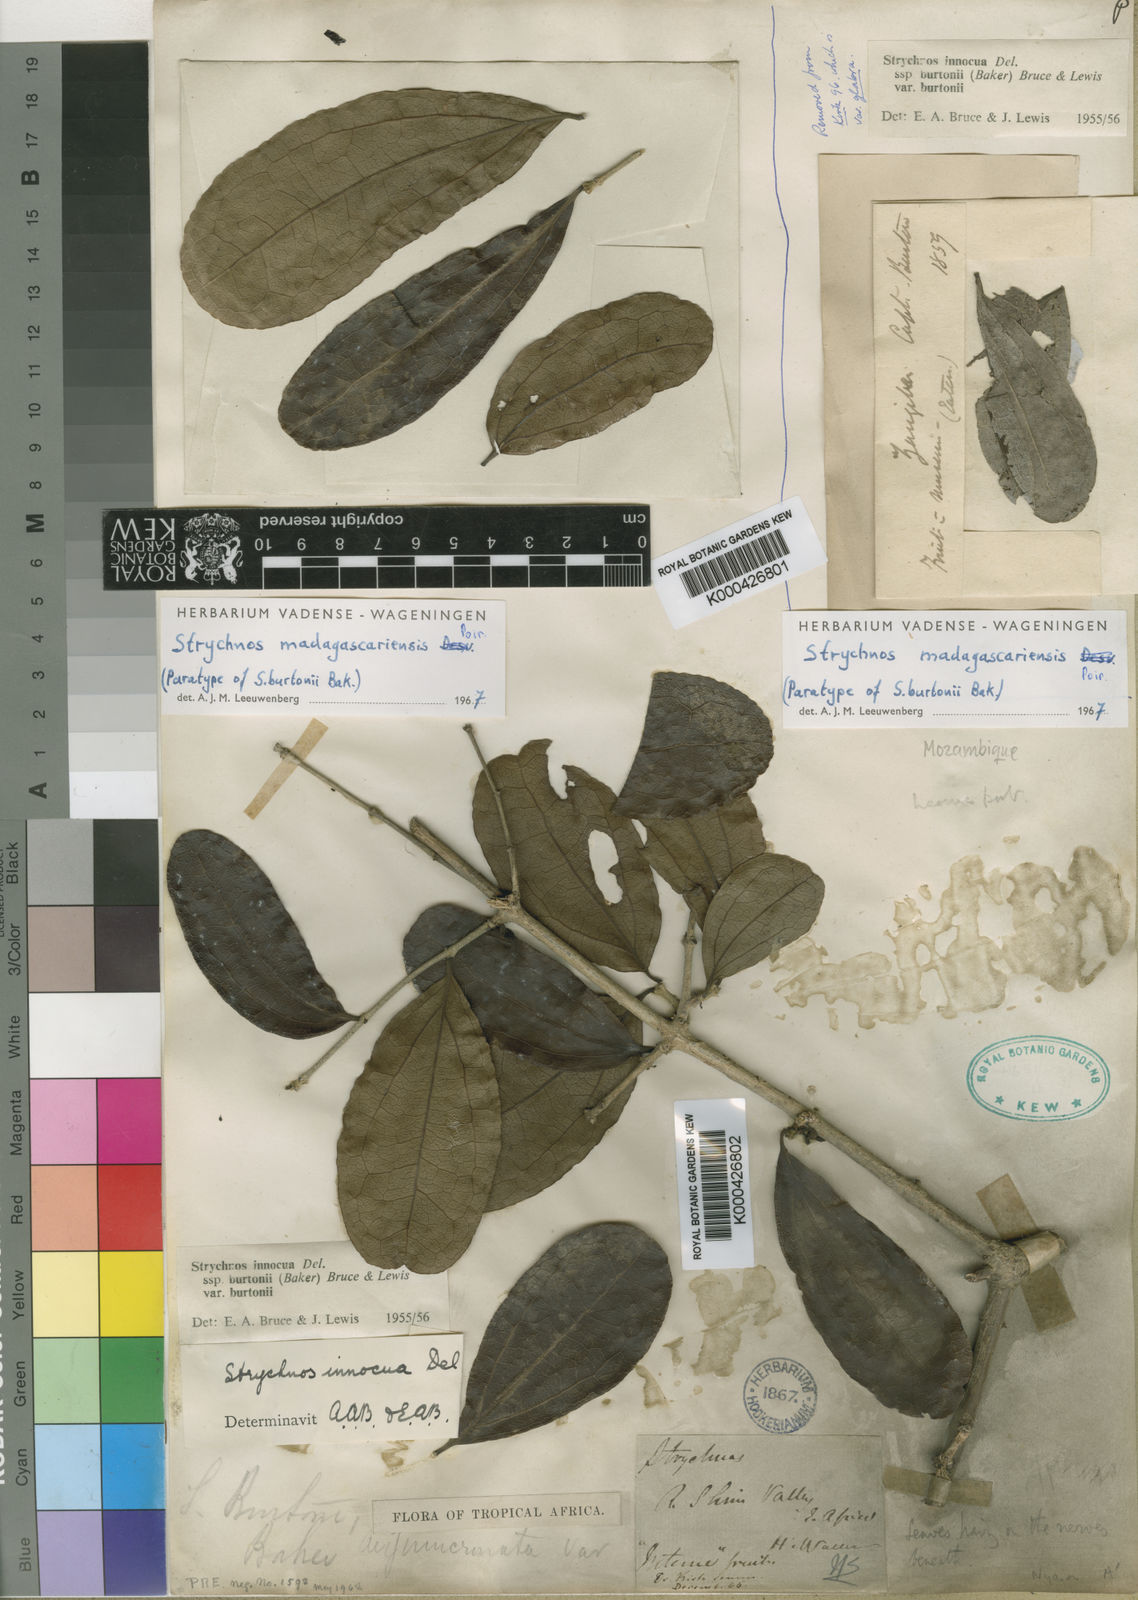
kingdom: Plantae
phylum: Tracheophyta
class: Magnoliopsida
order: Gentianales
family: Loganiaceae
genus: Strychnos
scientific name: Strychnos madagascariensis
